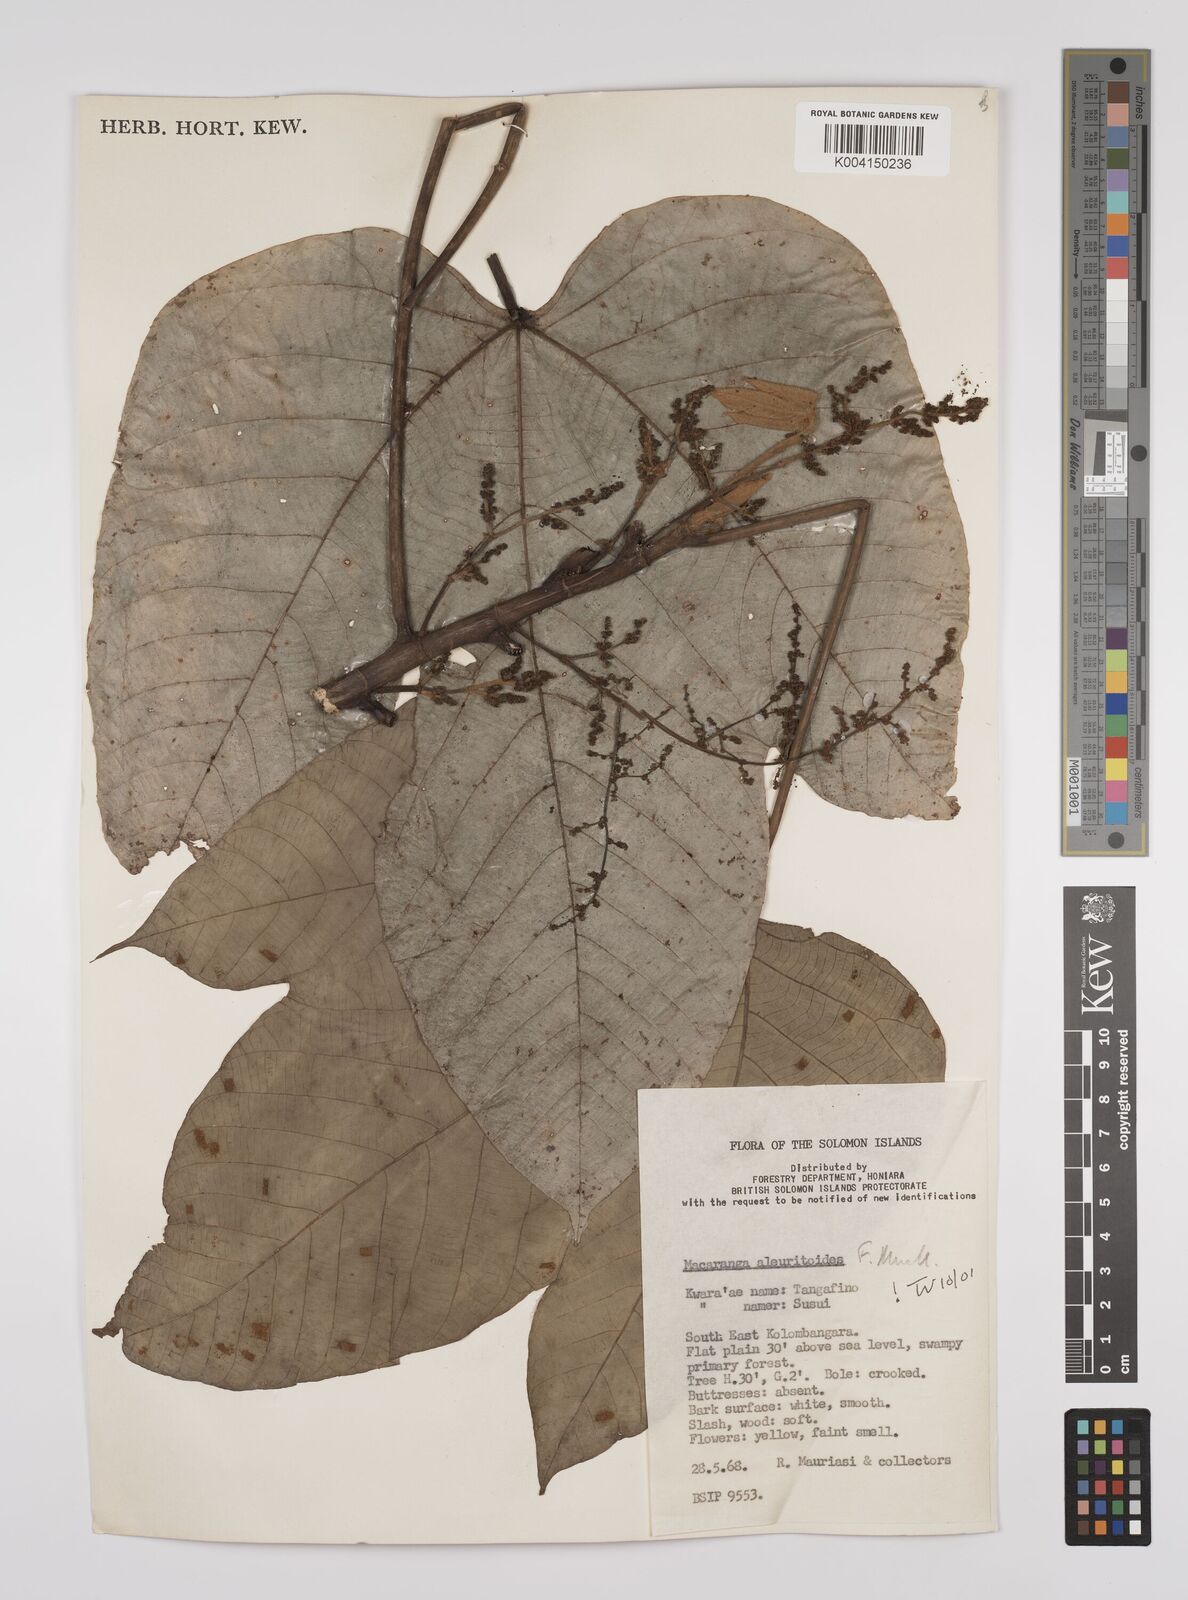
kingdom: Plantae
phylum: Tracheophyta
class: Magnoliopsida
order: Malpighiales
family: Euphorbiaceae
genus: Macaranga
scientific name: Macaranga aleuritoides
